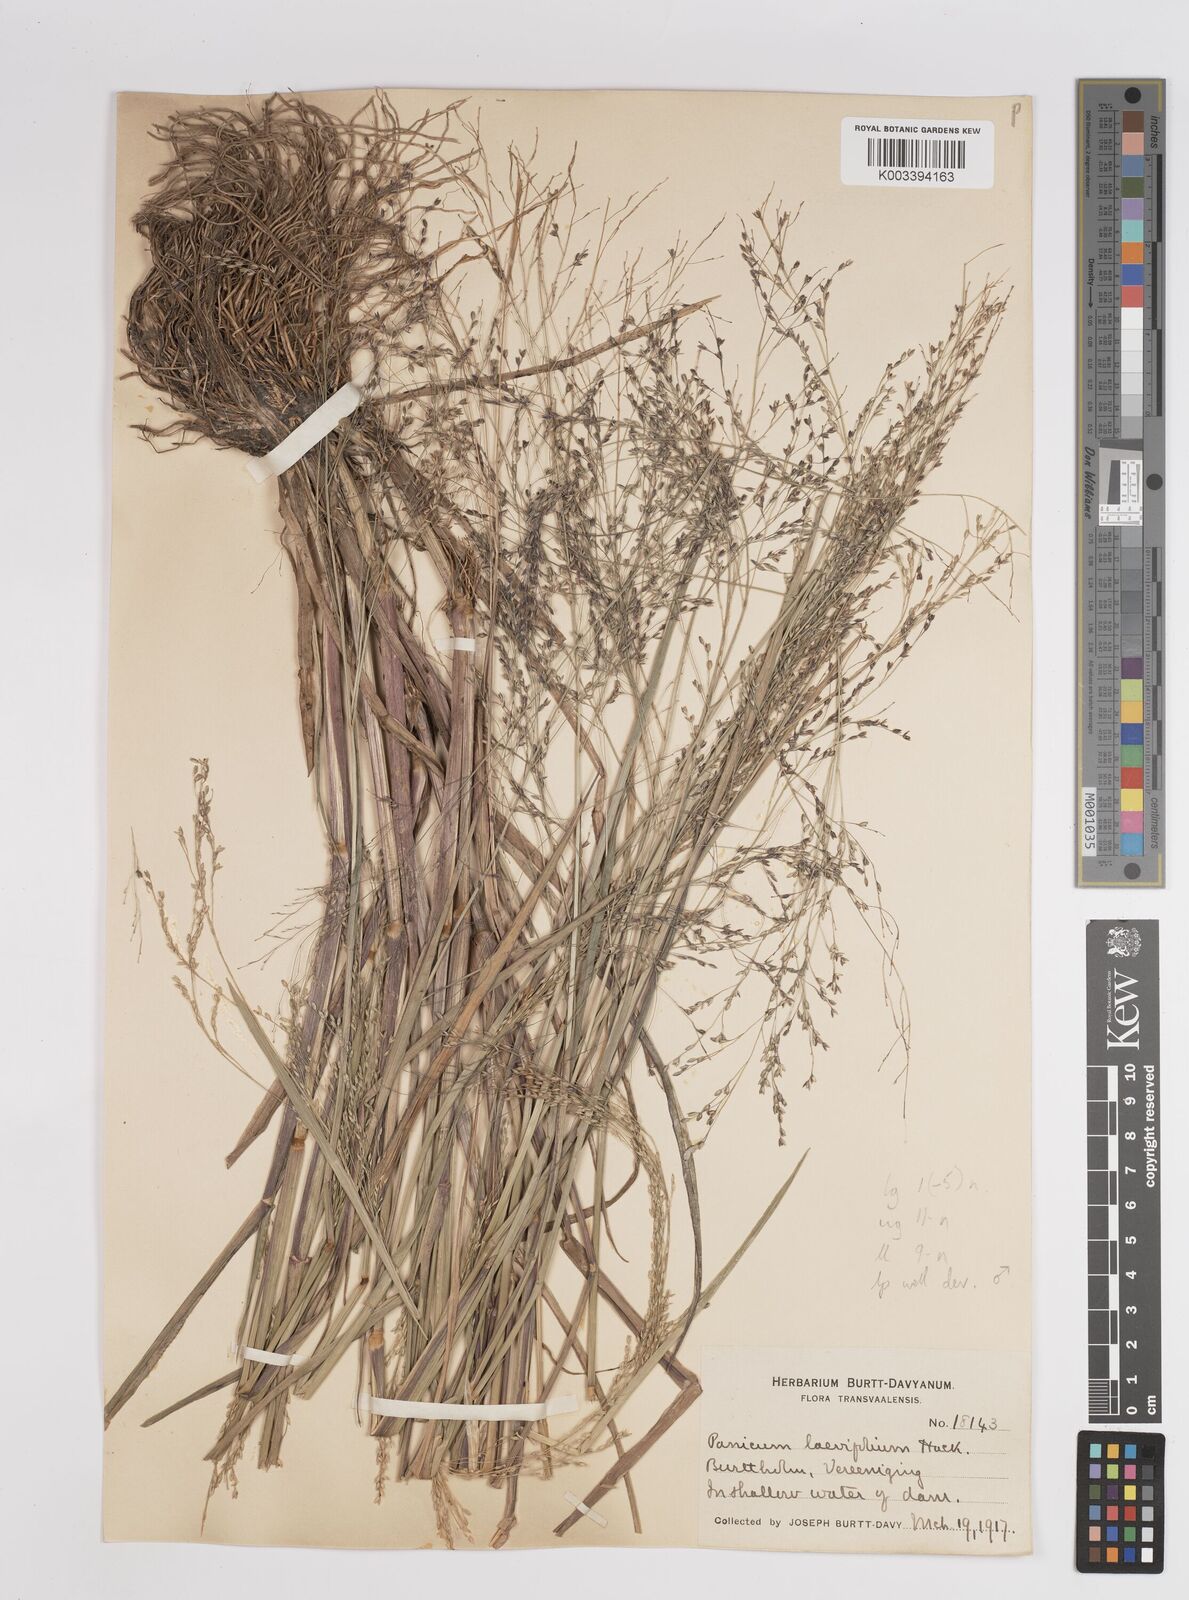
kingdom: Plantae
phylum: Tracheophyta
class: Liliopsida
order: Poales
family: Poaceae
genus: Panicum
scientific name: Panicum schinzii
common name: Sweet grass
